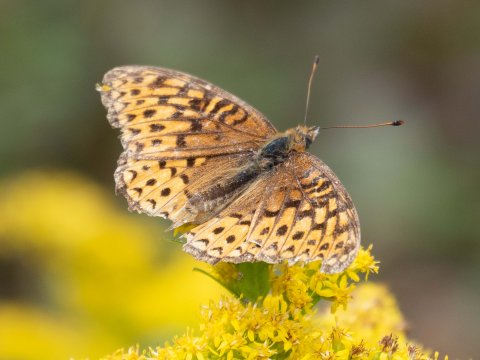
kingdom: Animalia
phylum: Arthropoda
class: Insecta
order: Lepidoptera
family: Nymphalidae
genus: Speyeria
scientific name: Speyeria atlantis
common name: Atlantis Fritillary
